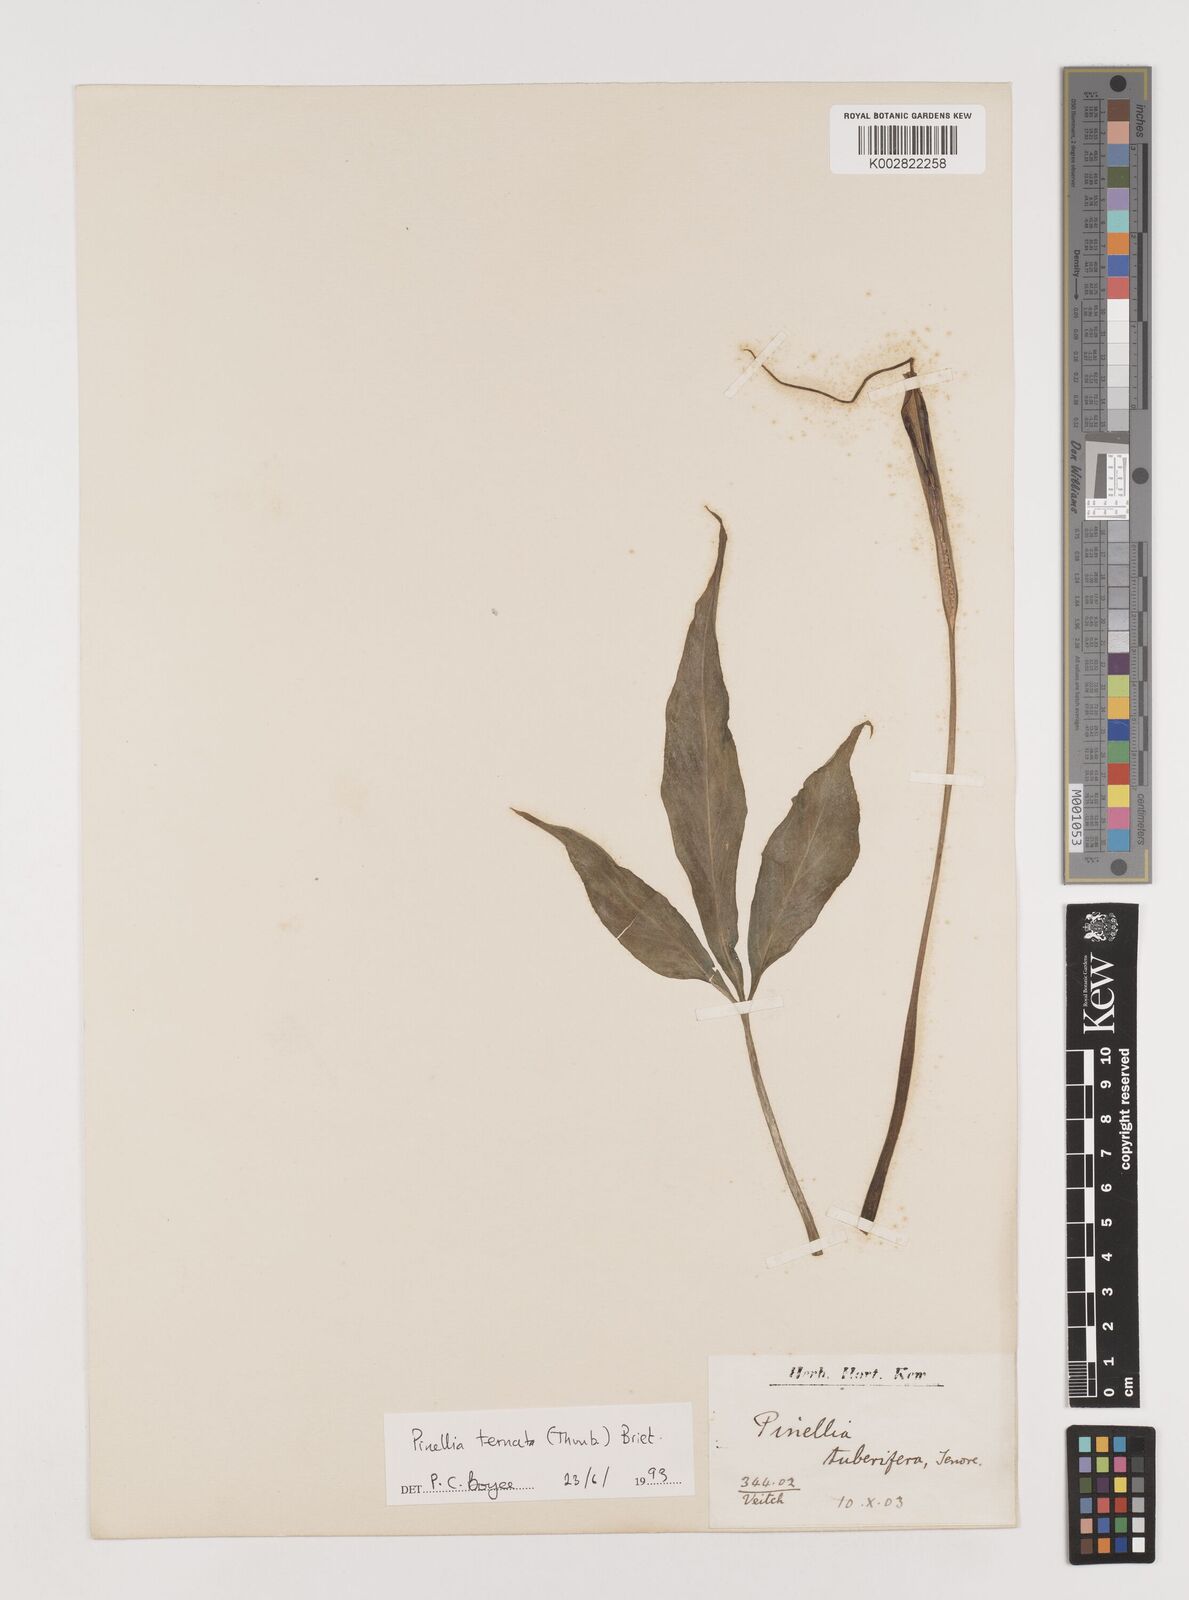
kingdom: Plantae
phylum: Tracheophyta
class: Liliopsida
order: Alismatales
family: Araceae
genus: Pinellia
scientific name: Pinellia ternata
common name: Pinellia
